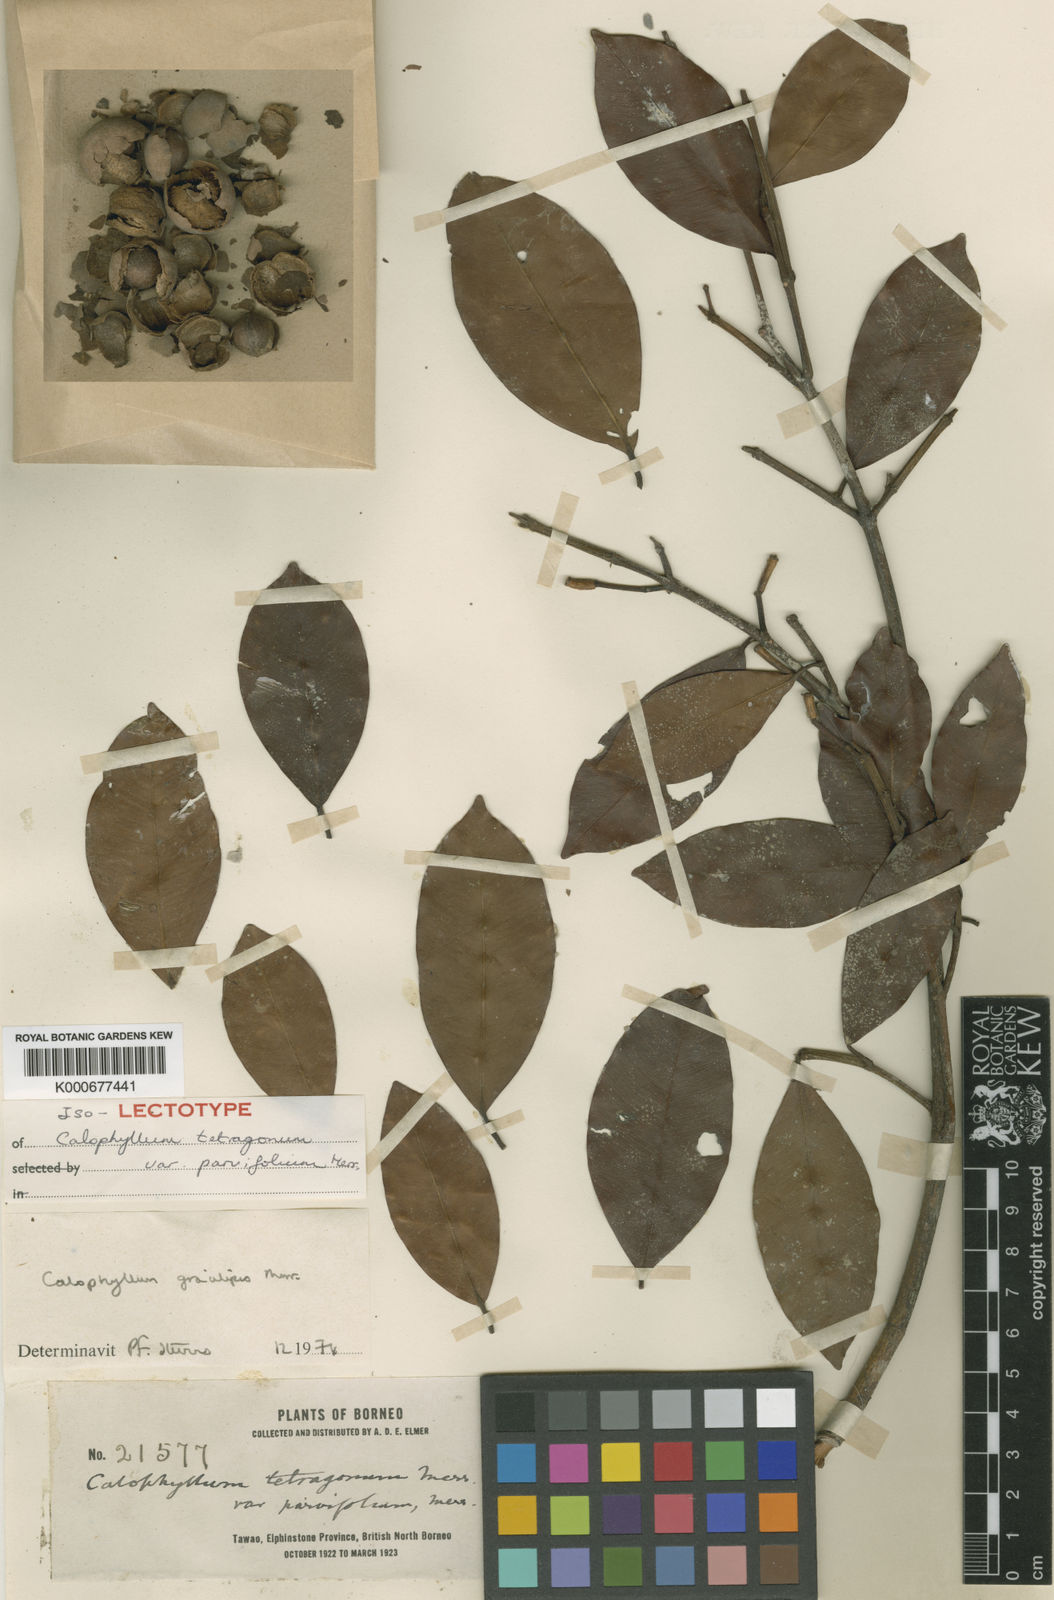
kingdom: Plantae
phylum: Tracheophyta
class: Magnoliopsida
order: Malpighiales
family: Calophyllaceae
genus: Calophyllum
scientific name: Calophyllum gracilipes
